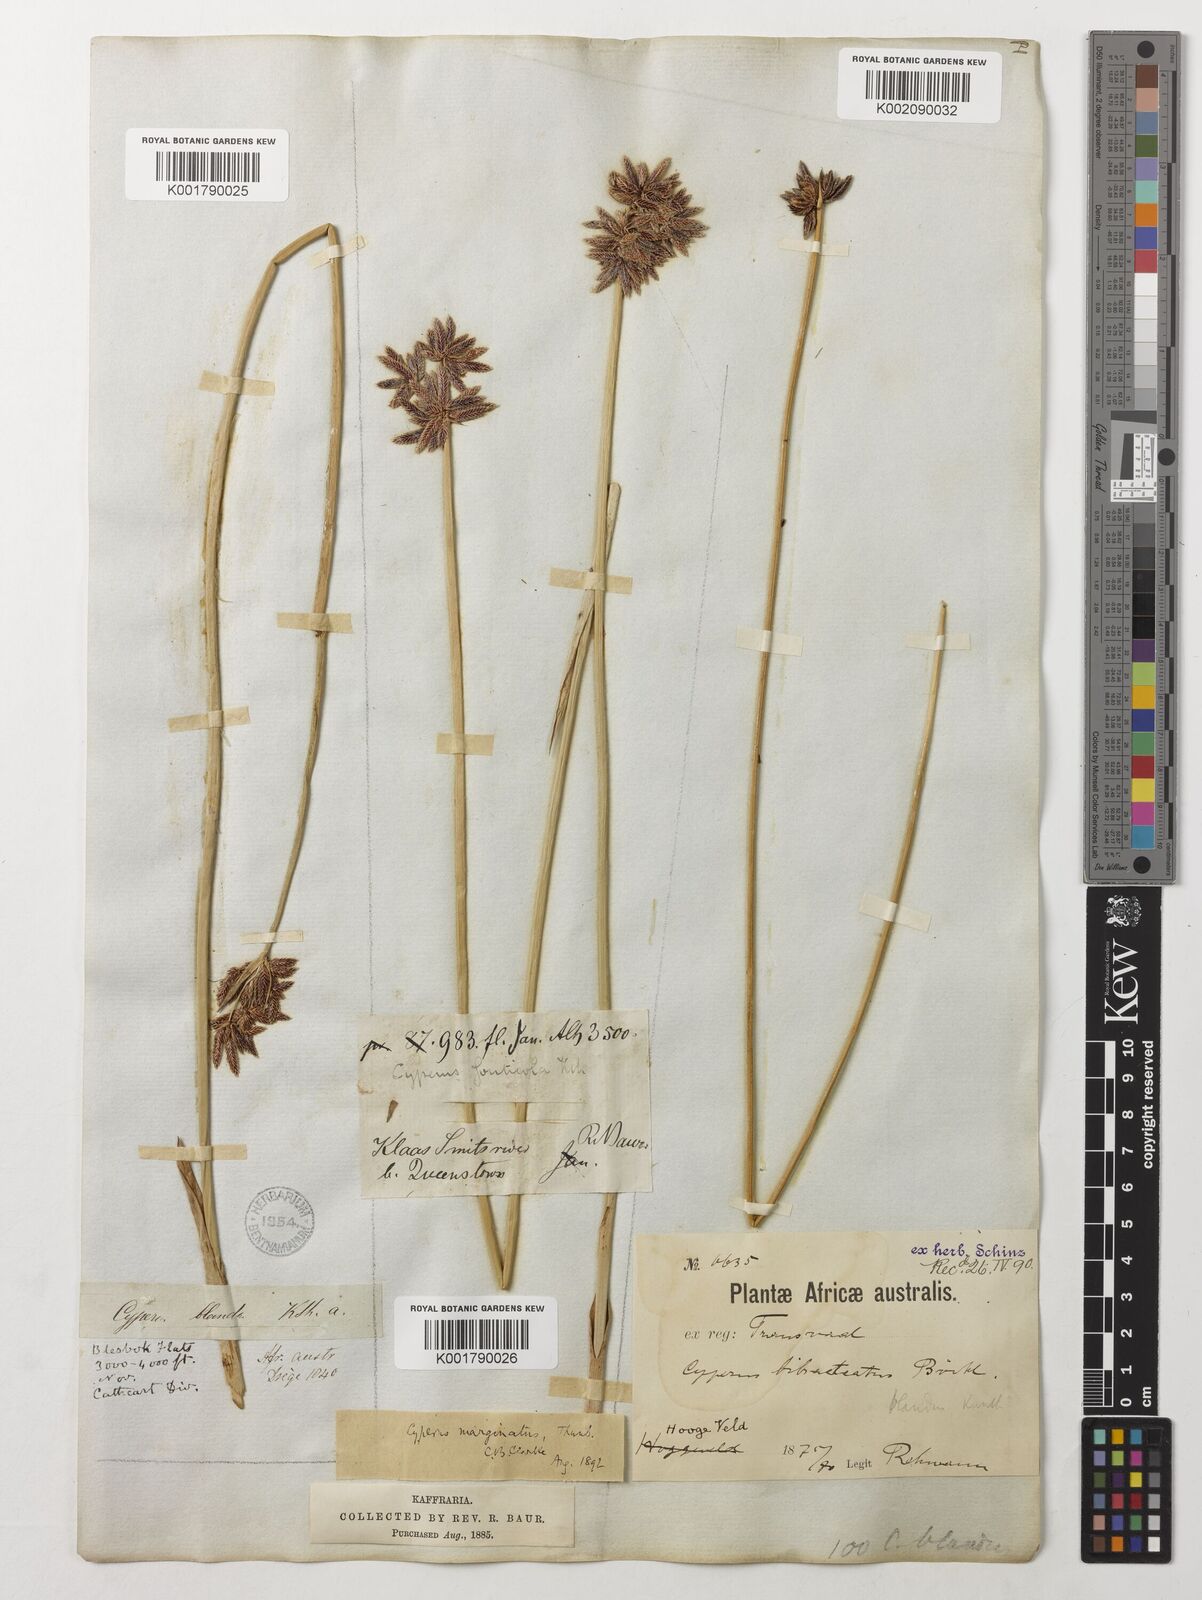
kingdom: Plantae
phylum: Tracheophyta
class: Liliopsida
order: Poales
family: Cyperaceae
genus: Cyperus
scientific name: Cyperus marginatus
